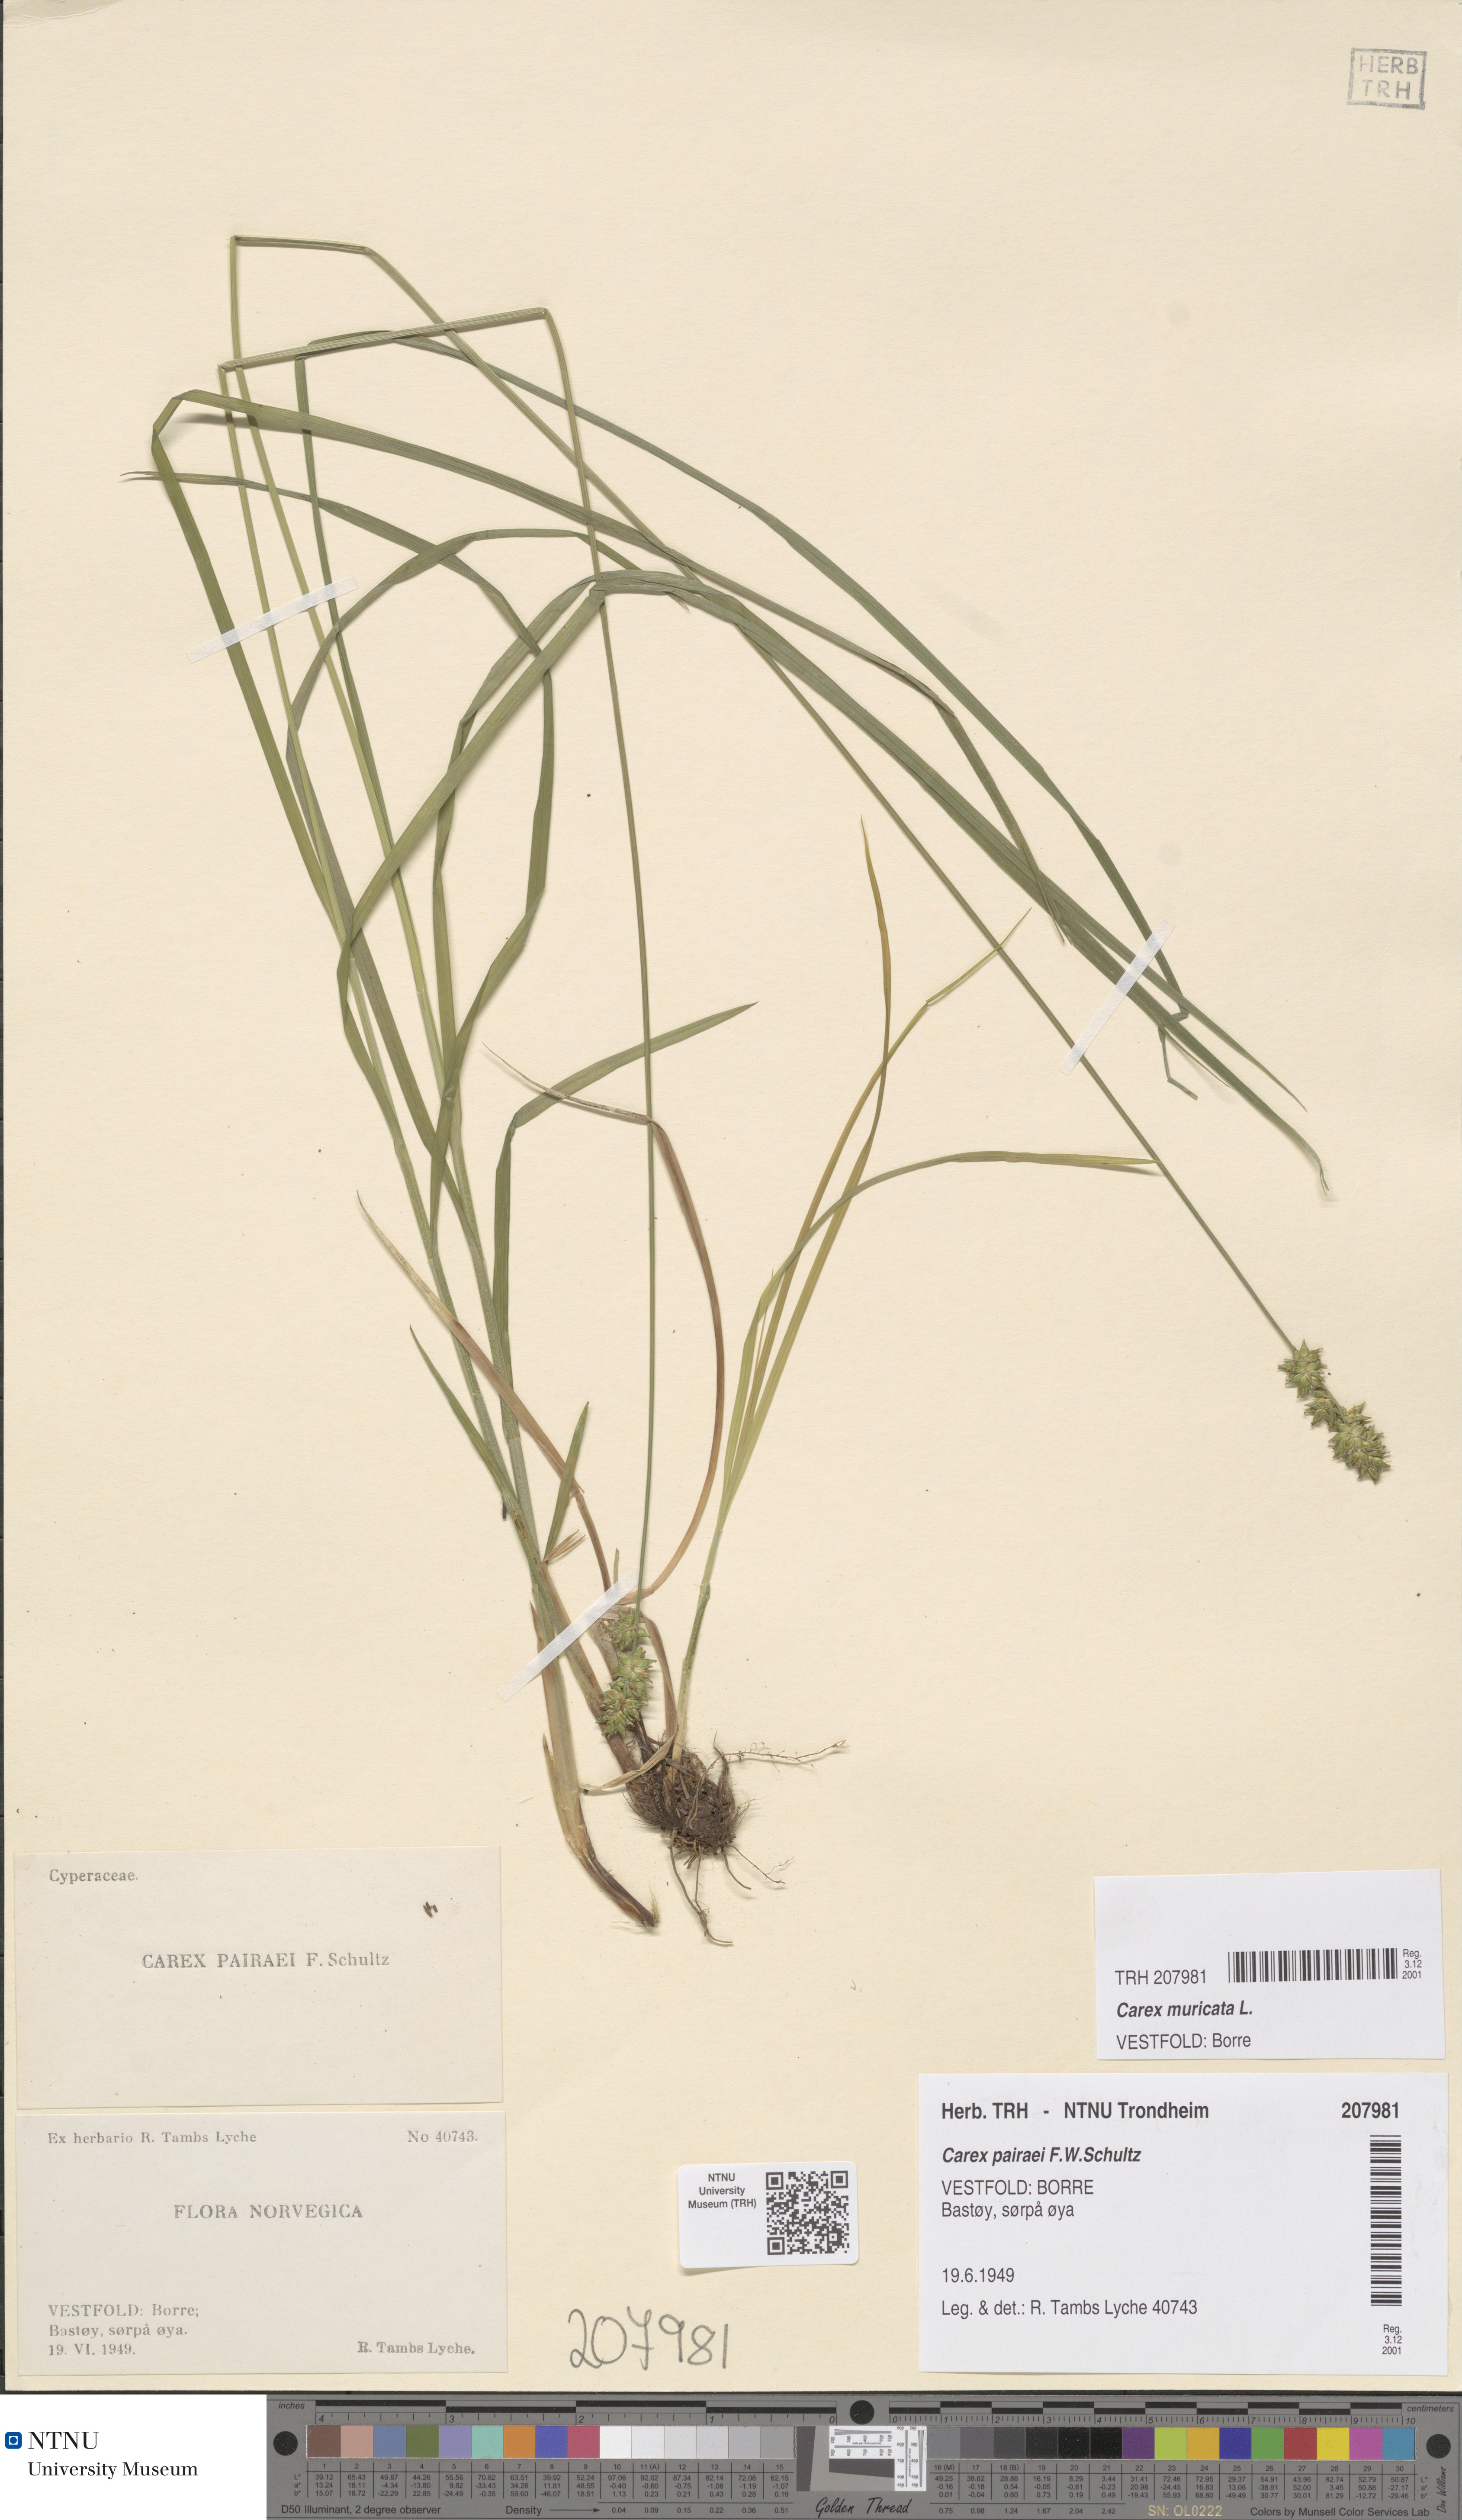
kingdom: Plantae
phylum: Tracheophyta
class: Liliopsida
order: Poales
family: Cyperaceae
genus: Carex
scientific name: Carex spicata
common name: Spiked sedge
